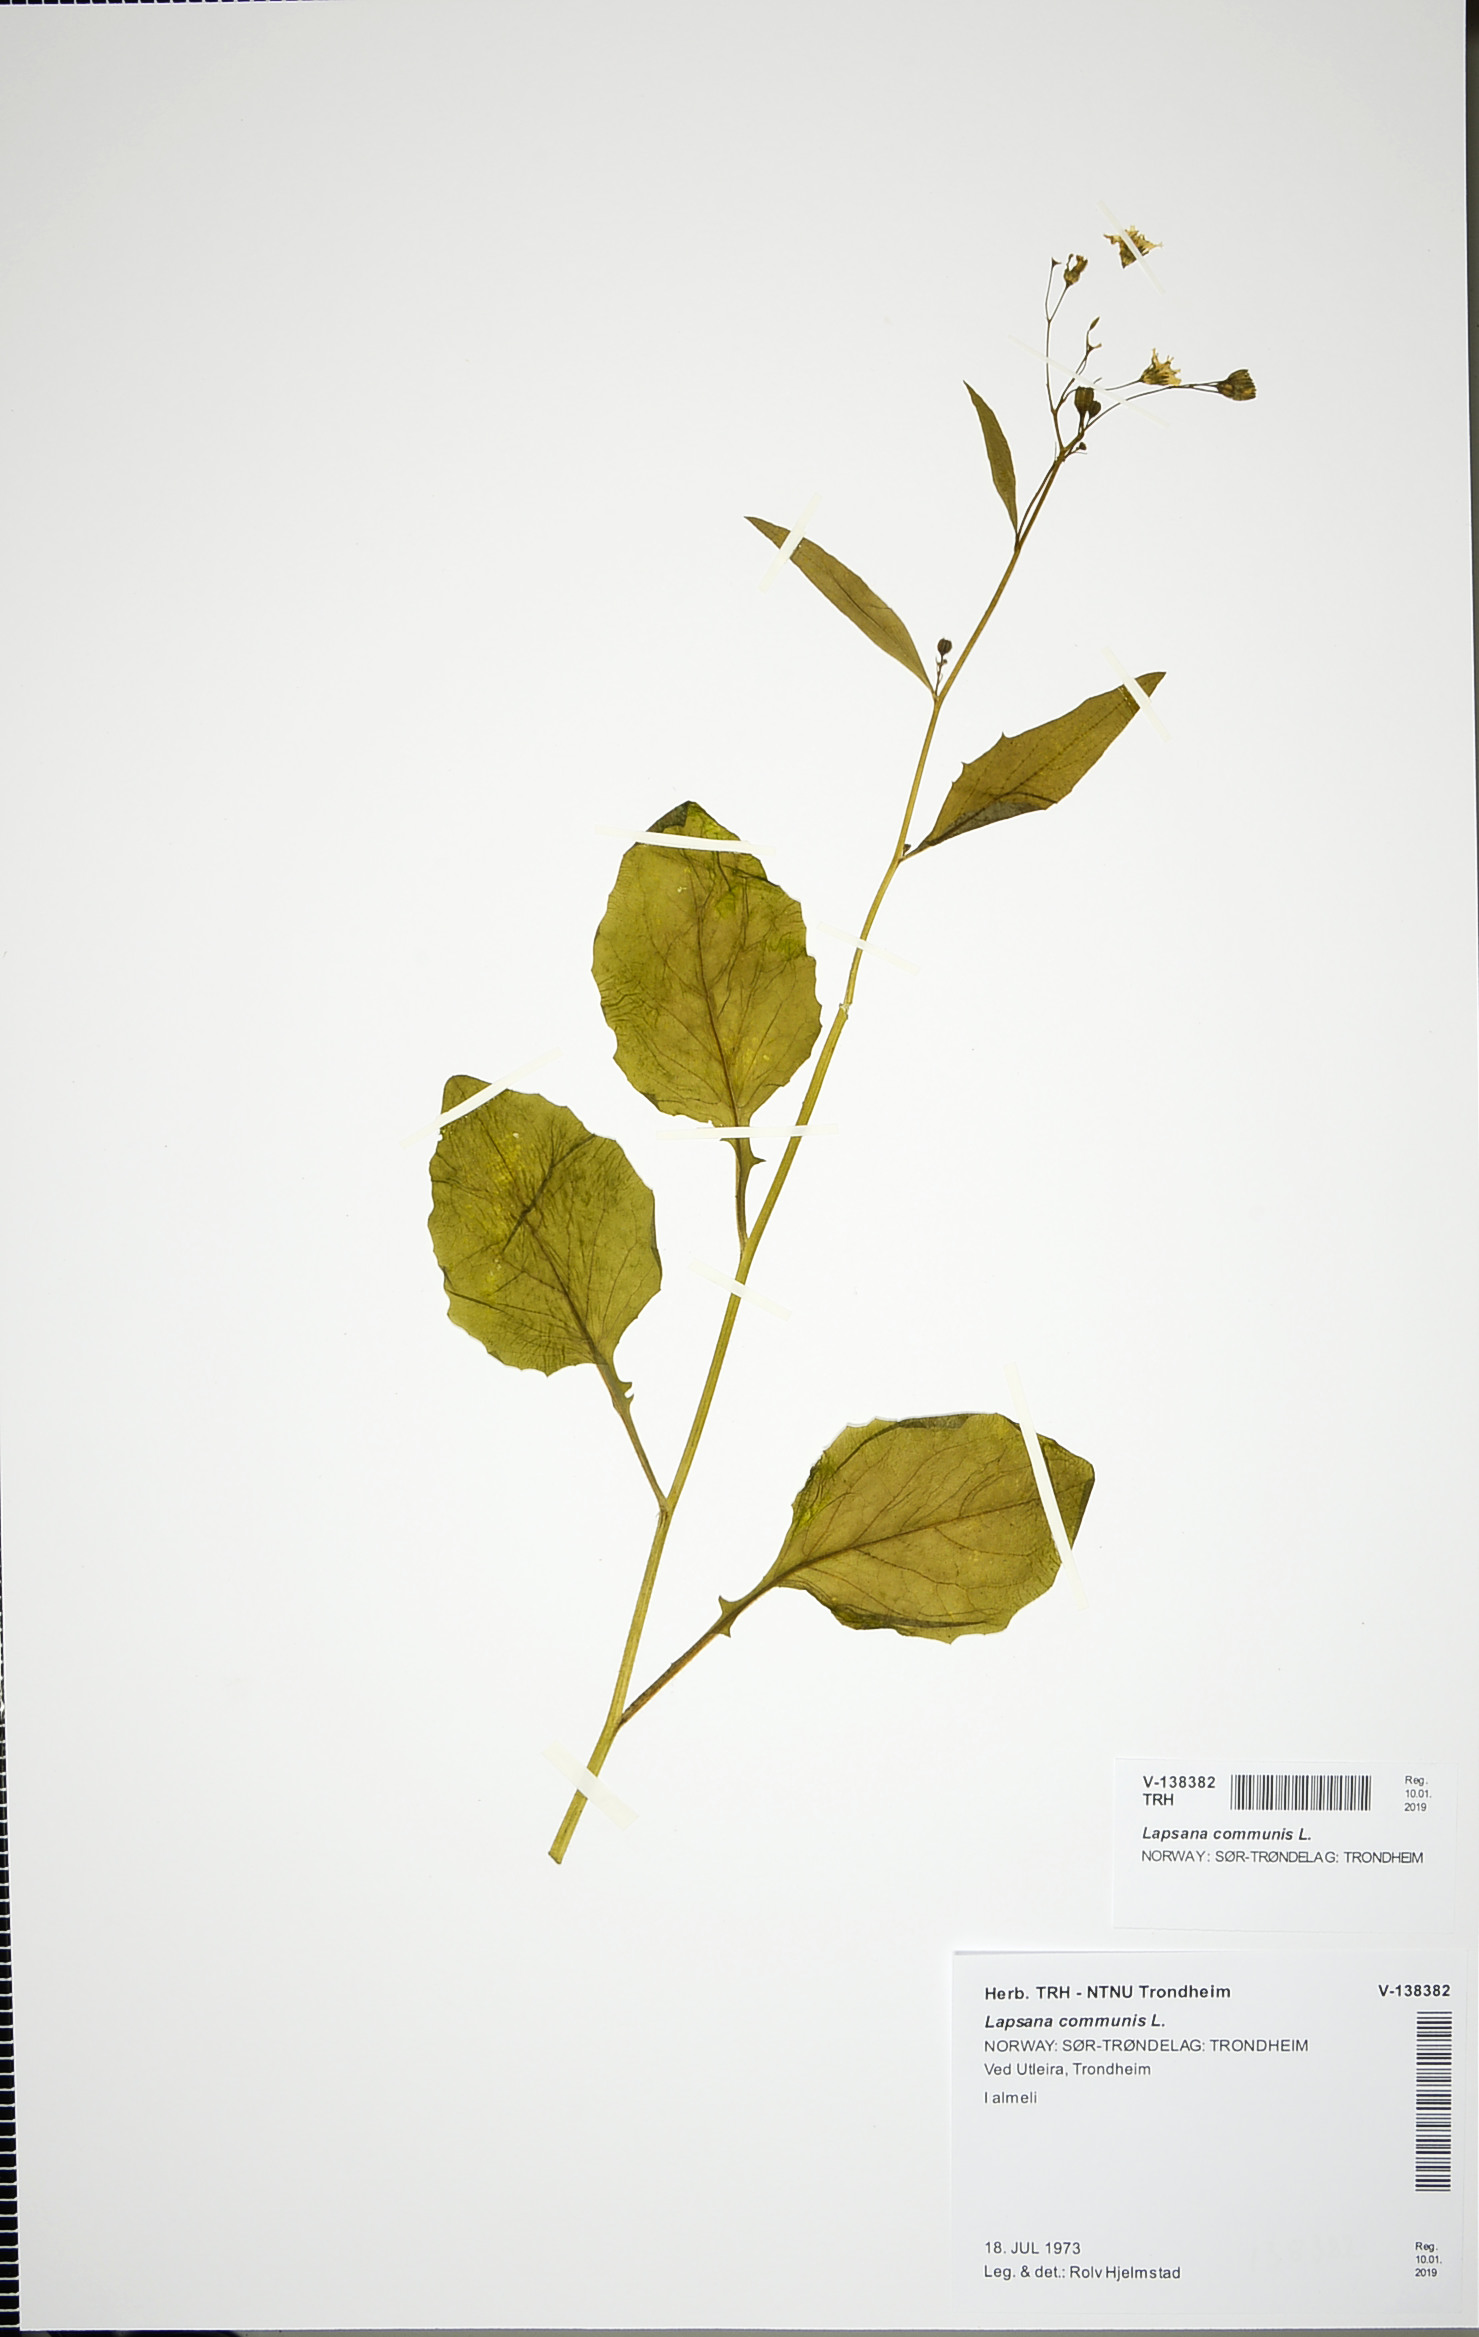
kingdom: Plantae
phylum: Tracheophyta
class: Magnoliopsida
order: Asterales
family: Asteraceae
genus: Lapsana
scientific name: Lapsana communis
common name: Nipplewort
